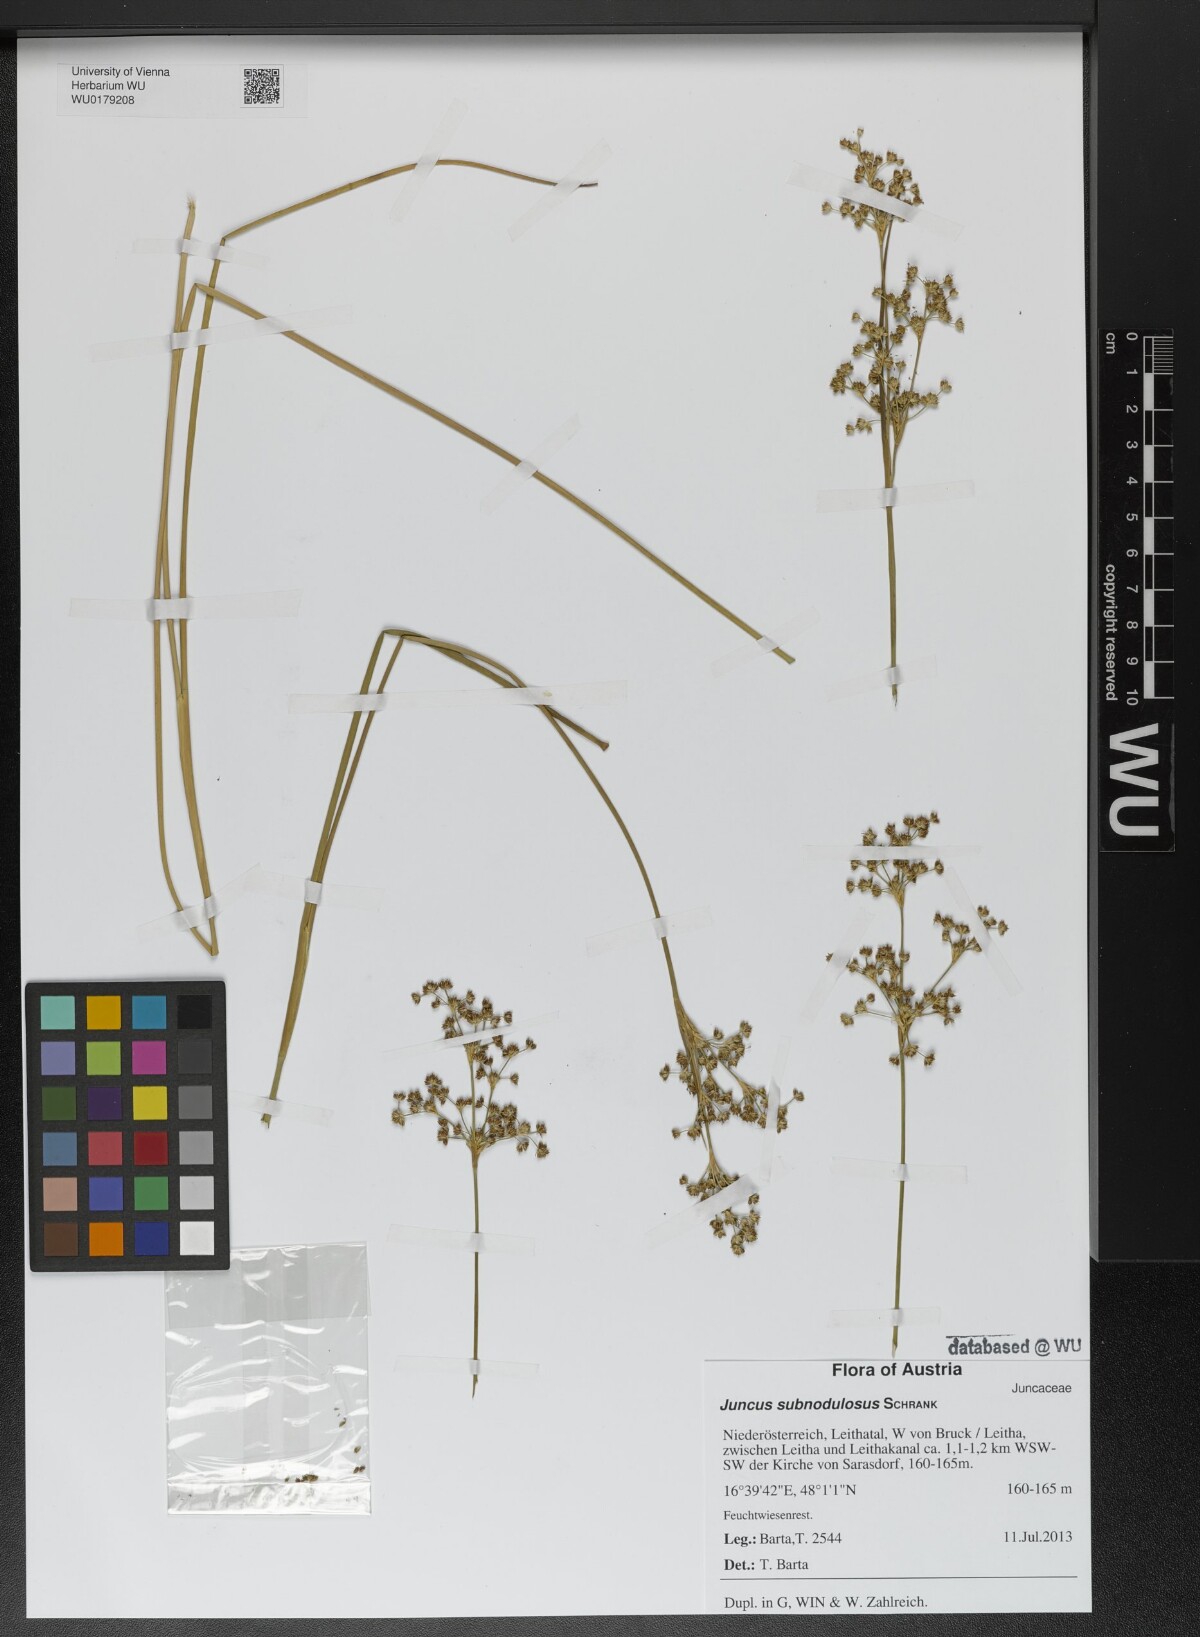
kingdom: Plantae
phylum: Tracheophyta
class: Liliopsida
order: Poales
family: Juncaceae
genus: Juncus
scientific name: Juncus subnodulosus
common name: Blunt-flowered rush
